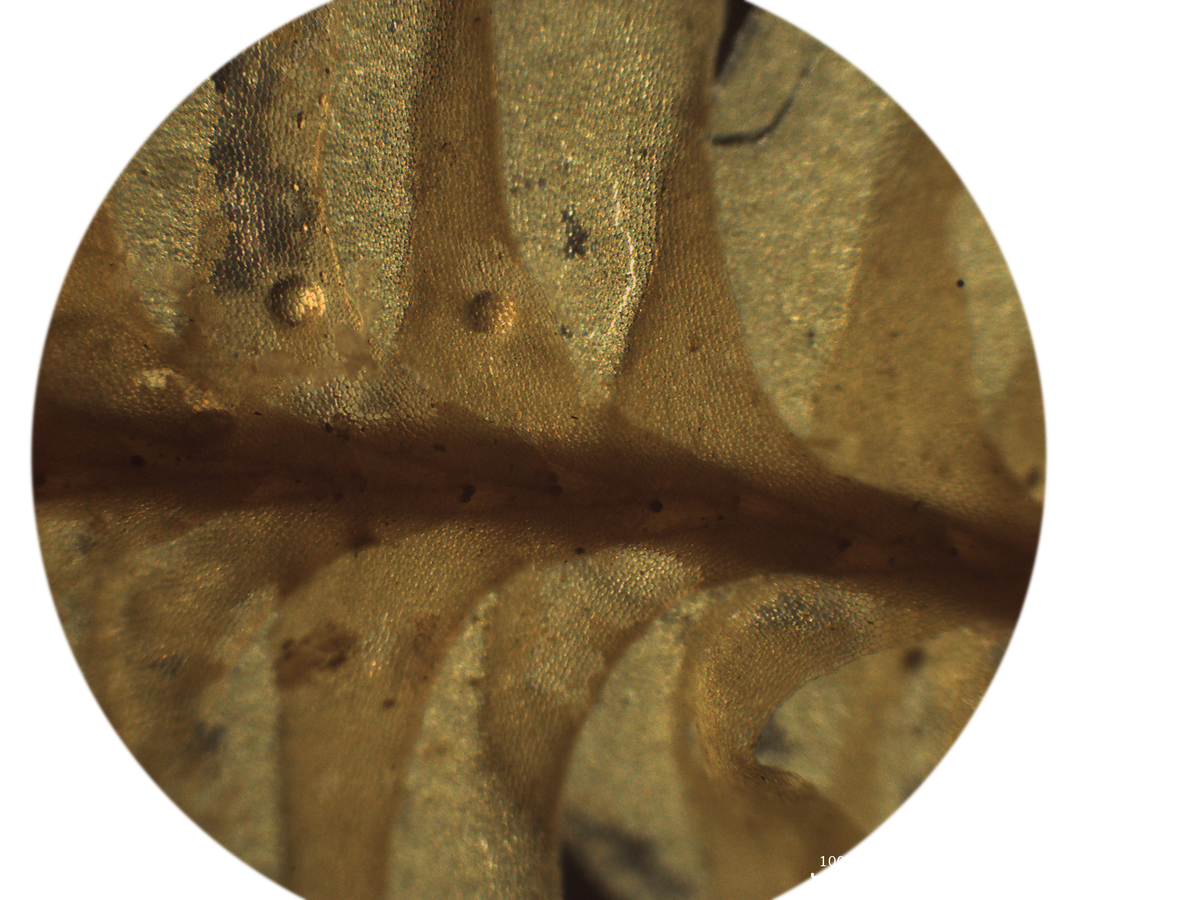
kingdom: Plantae
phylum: Marchantiophyta
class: Jungermanniopsida
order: Jungermanniales
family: Plagiochilaceae
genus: Plagiochila
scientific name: Plagiochila repanda
